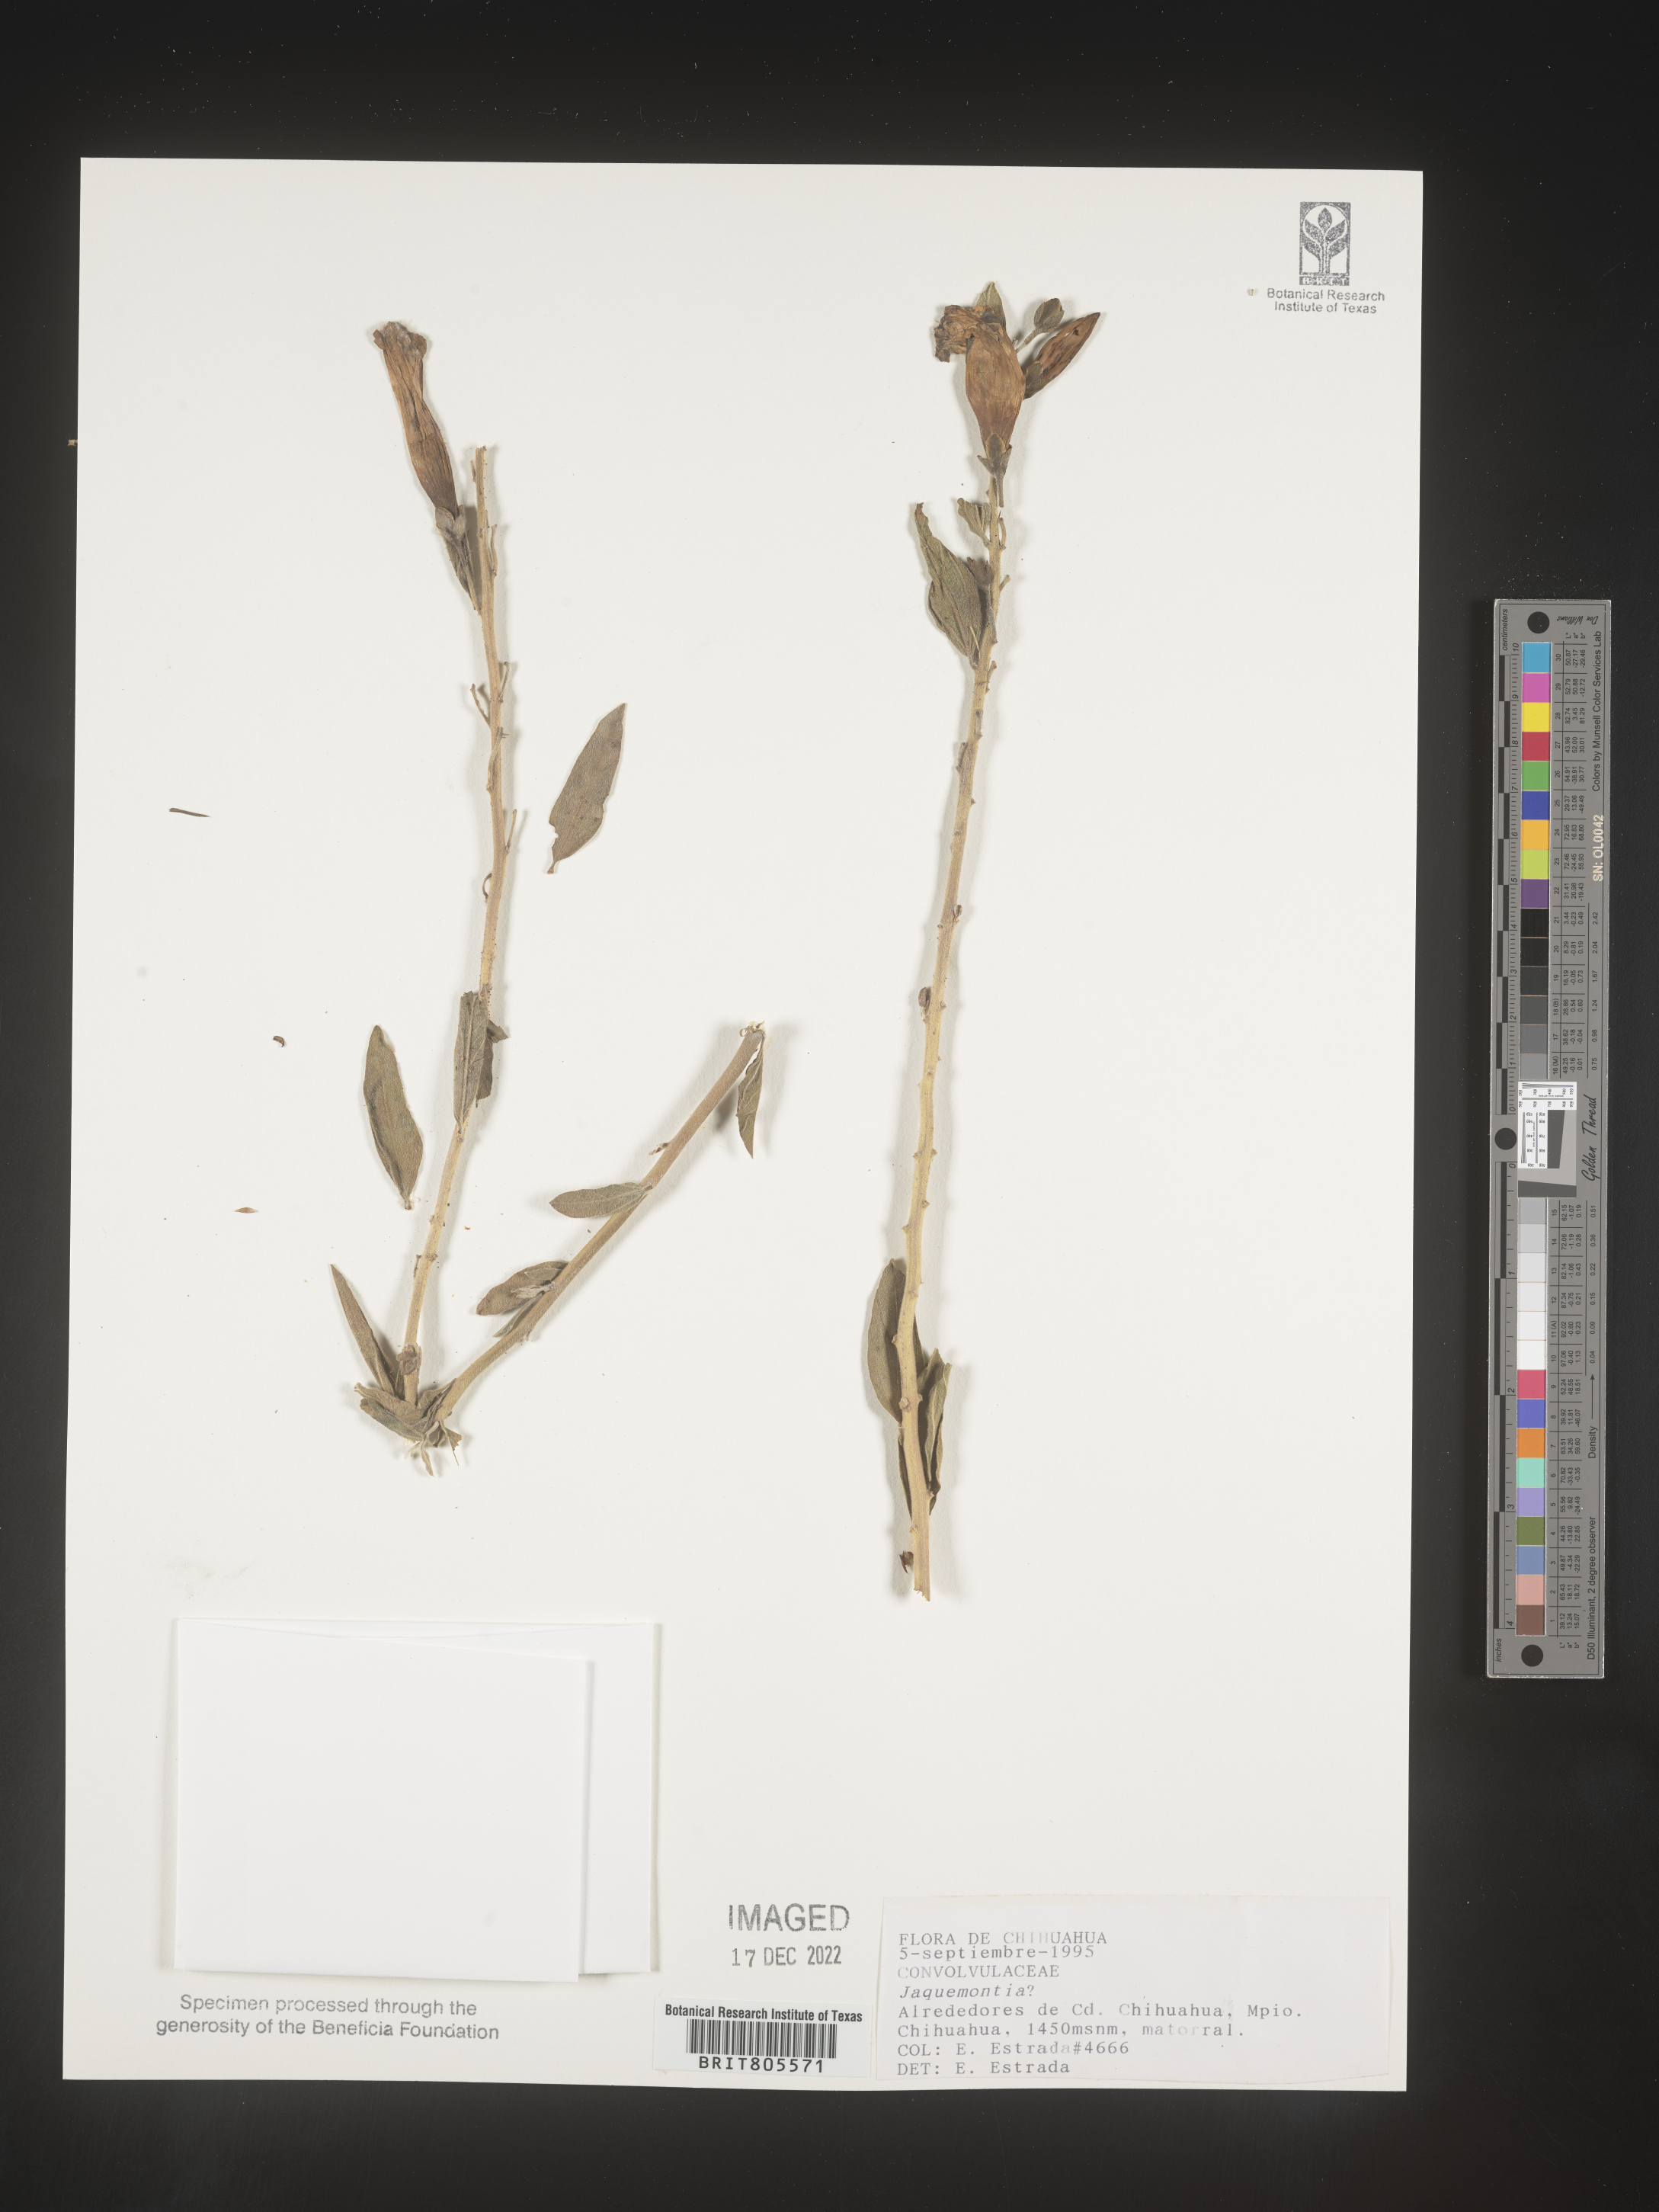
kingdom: Plantae
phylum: Tracheophyta
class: Magnoliopsida
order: Solanales
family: Convolvulaceae
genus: Jacquemontia
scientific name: Jacquemontia
